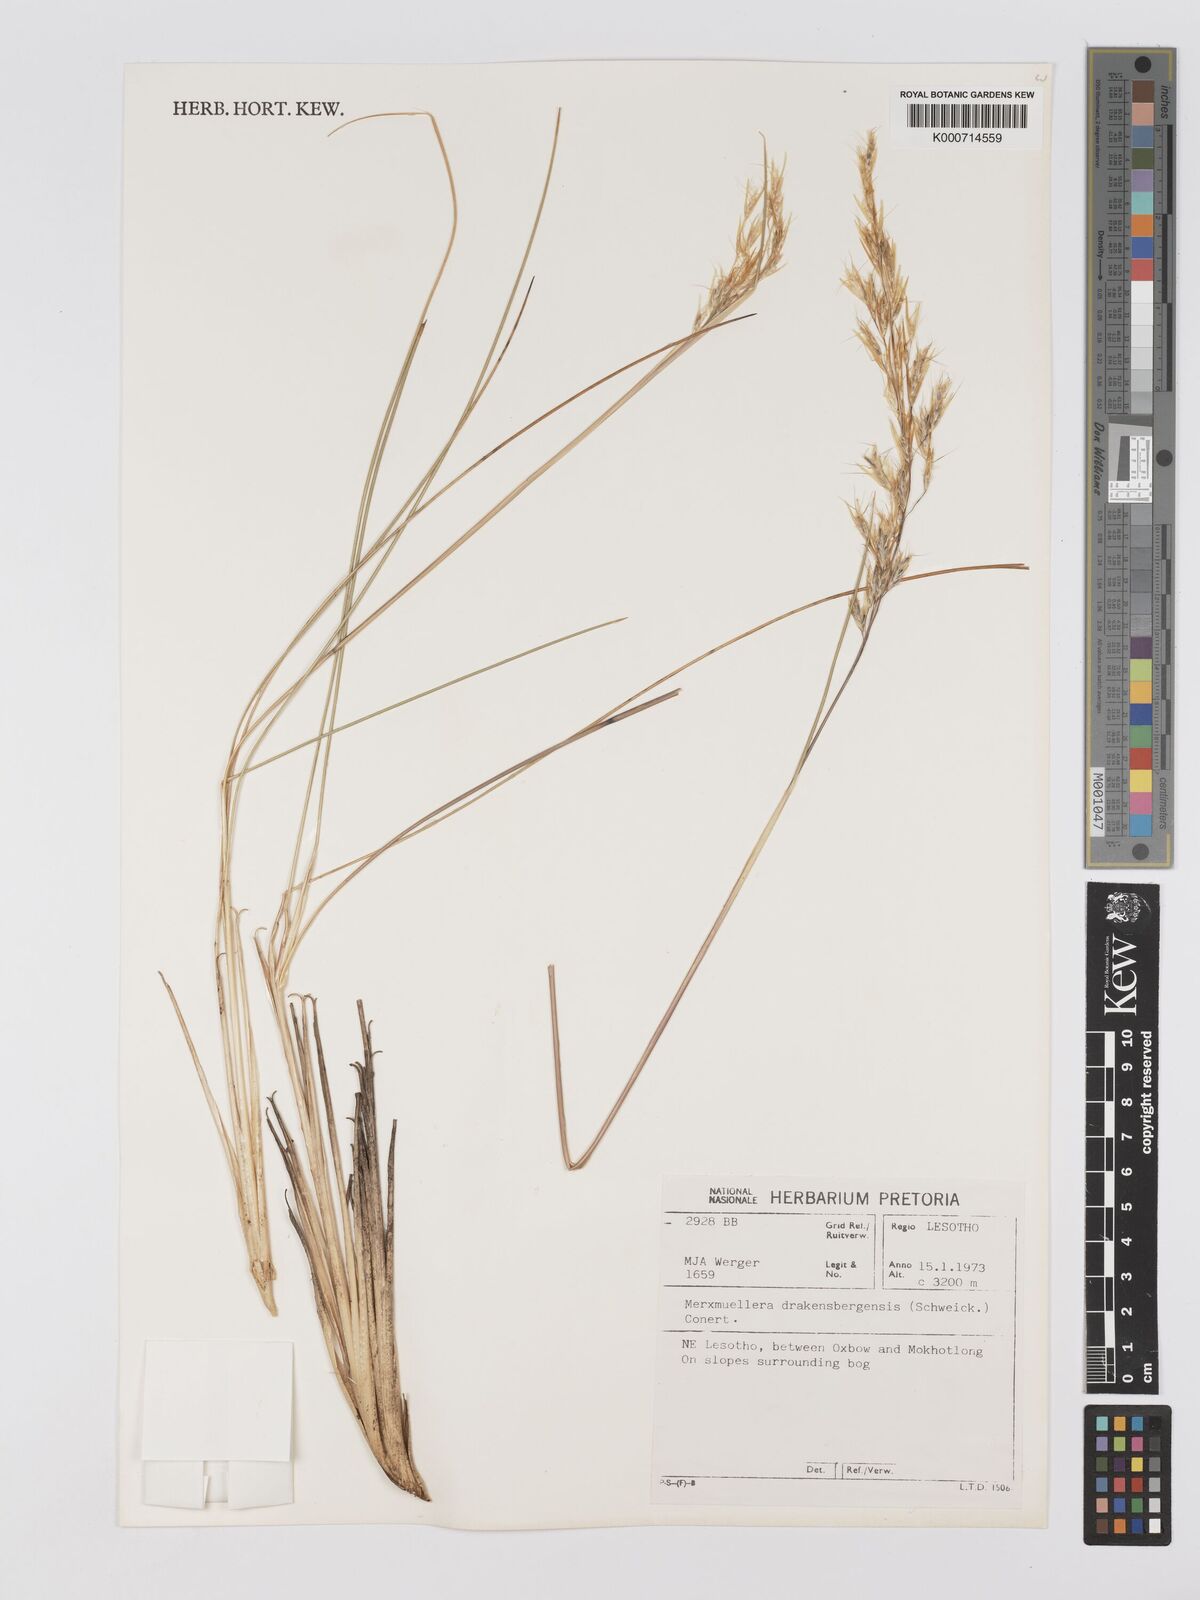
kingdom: Plantae
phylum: Tracheophyta
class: Liliopsida
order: Poales
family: Poaceae
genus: Rytidosperma
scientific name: Rytidosperma
